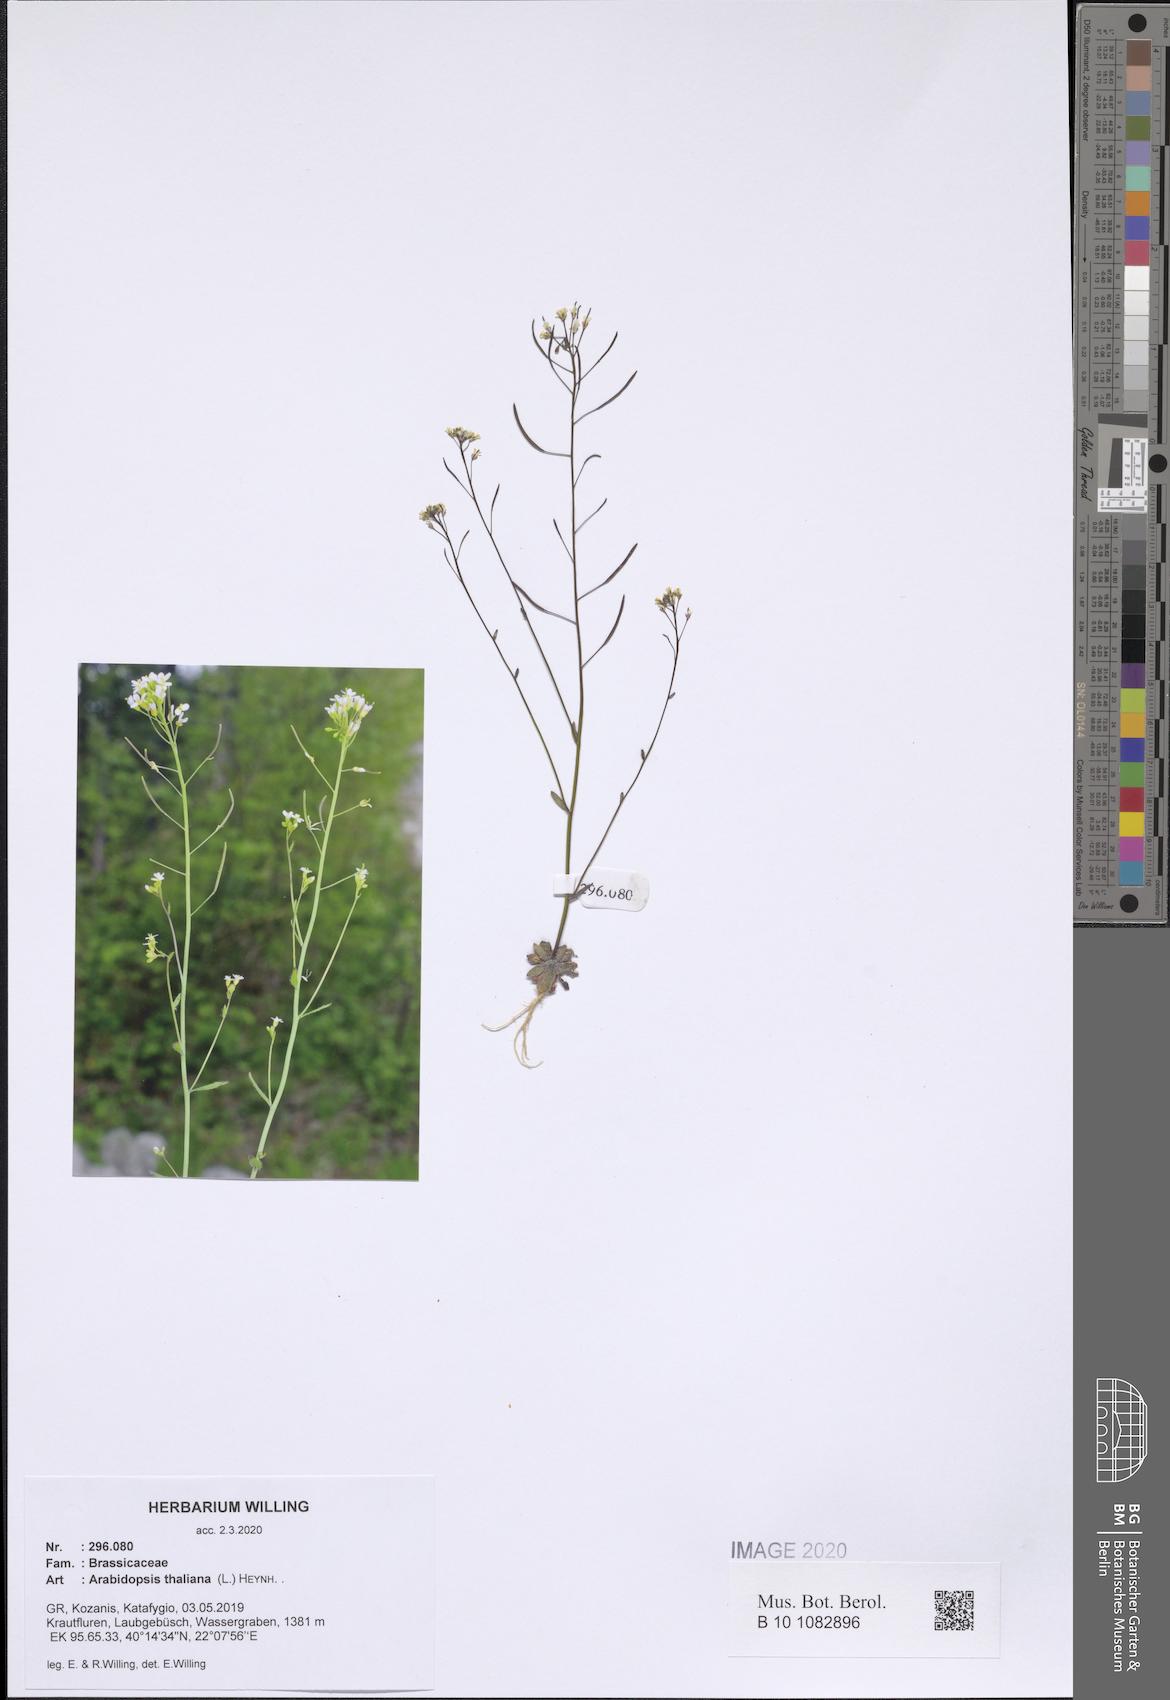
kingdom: Plantae
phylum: Tracheophyta
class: Magnoliopsida
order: Brassicales
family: Brassicaceae
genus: Arabidopsis
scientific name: Arabidopsis thaliana
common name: Thale cress
